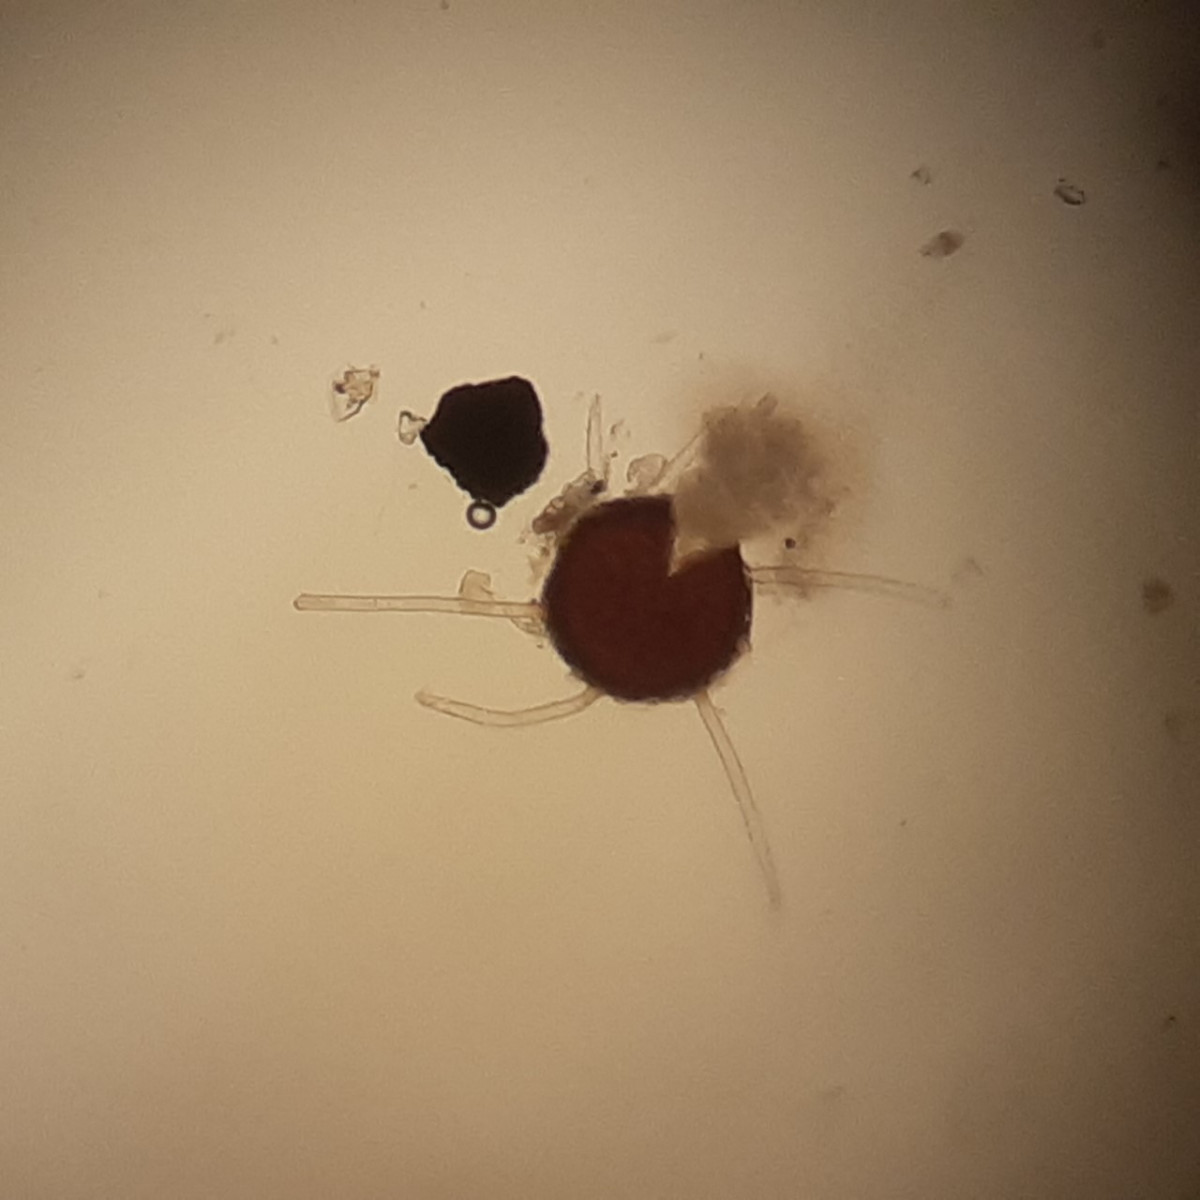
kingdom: Fungi
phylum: Ascomycota
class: Leotiomycetes
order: Helotiales
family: Erysiphaceae
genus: Erysiphe
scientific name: Erysiphe syringae-japonicae
